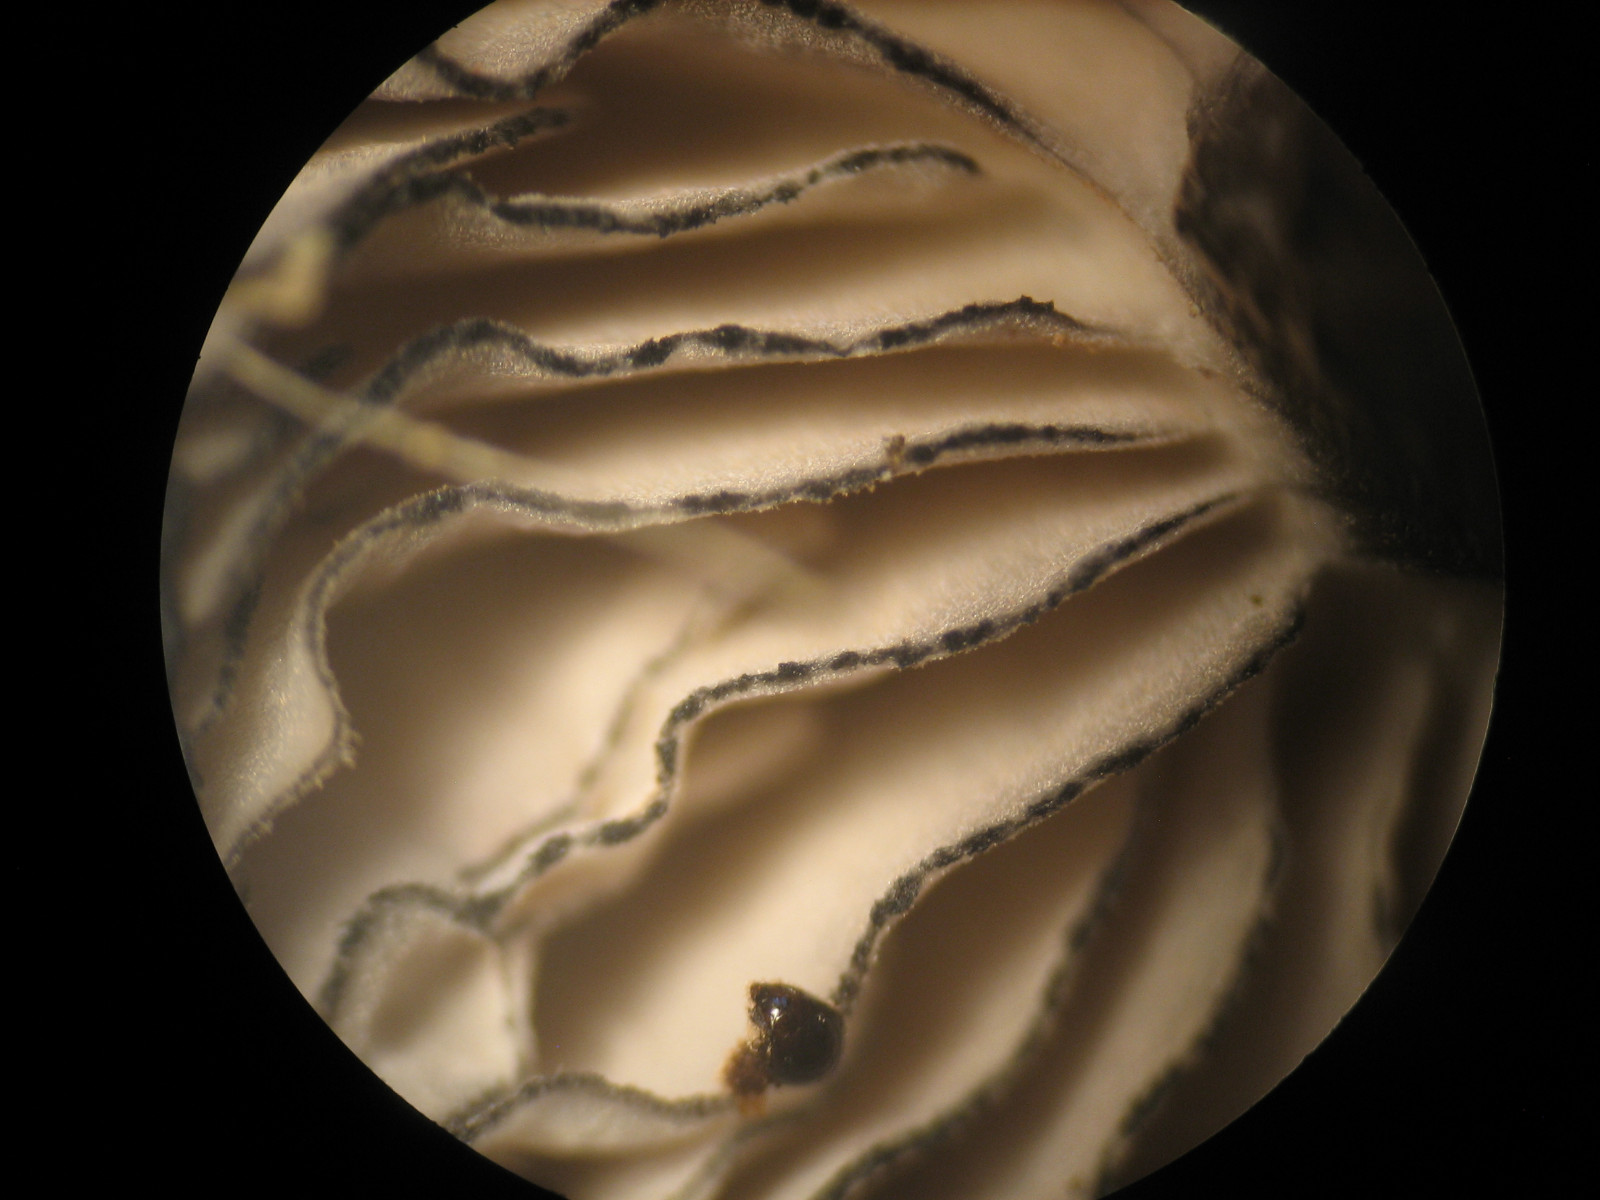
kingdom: Fungi
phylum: Basidiomycota
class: Agaricomycetes
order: Agaricales
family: Entolomataceae
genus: Entoloma
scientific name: Entoloma
